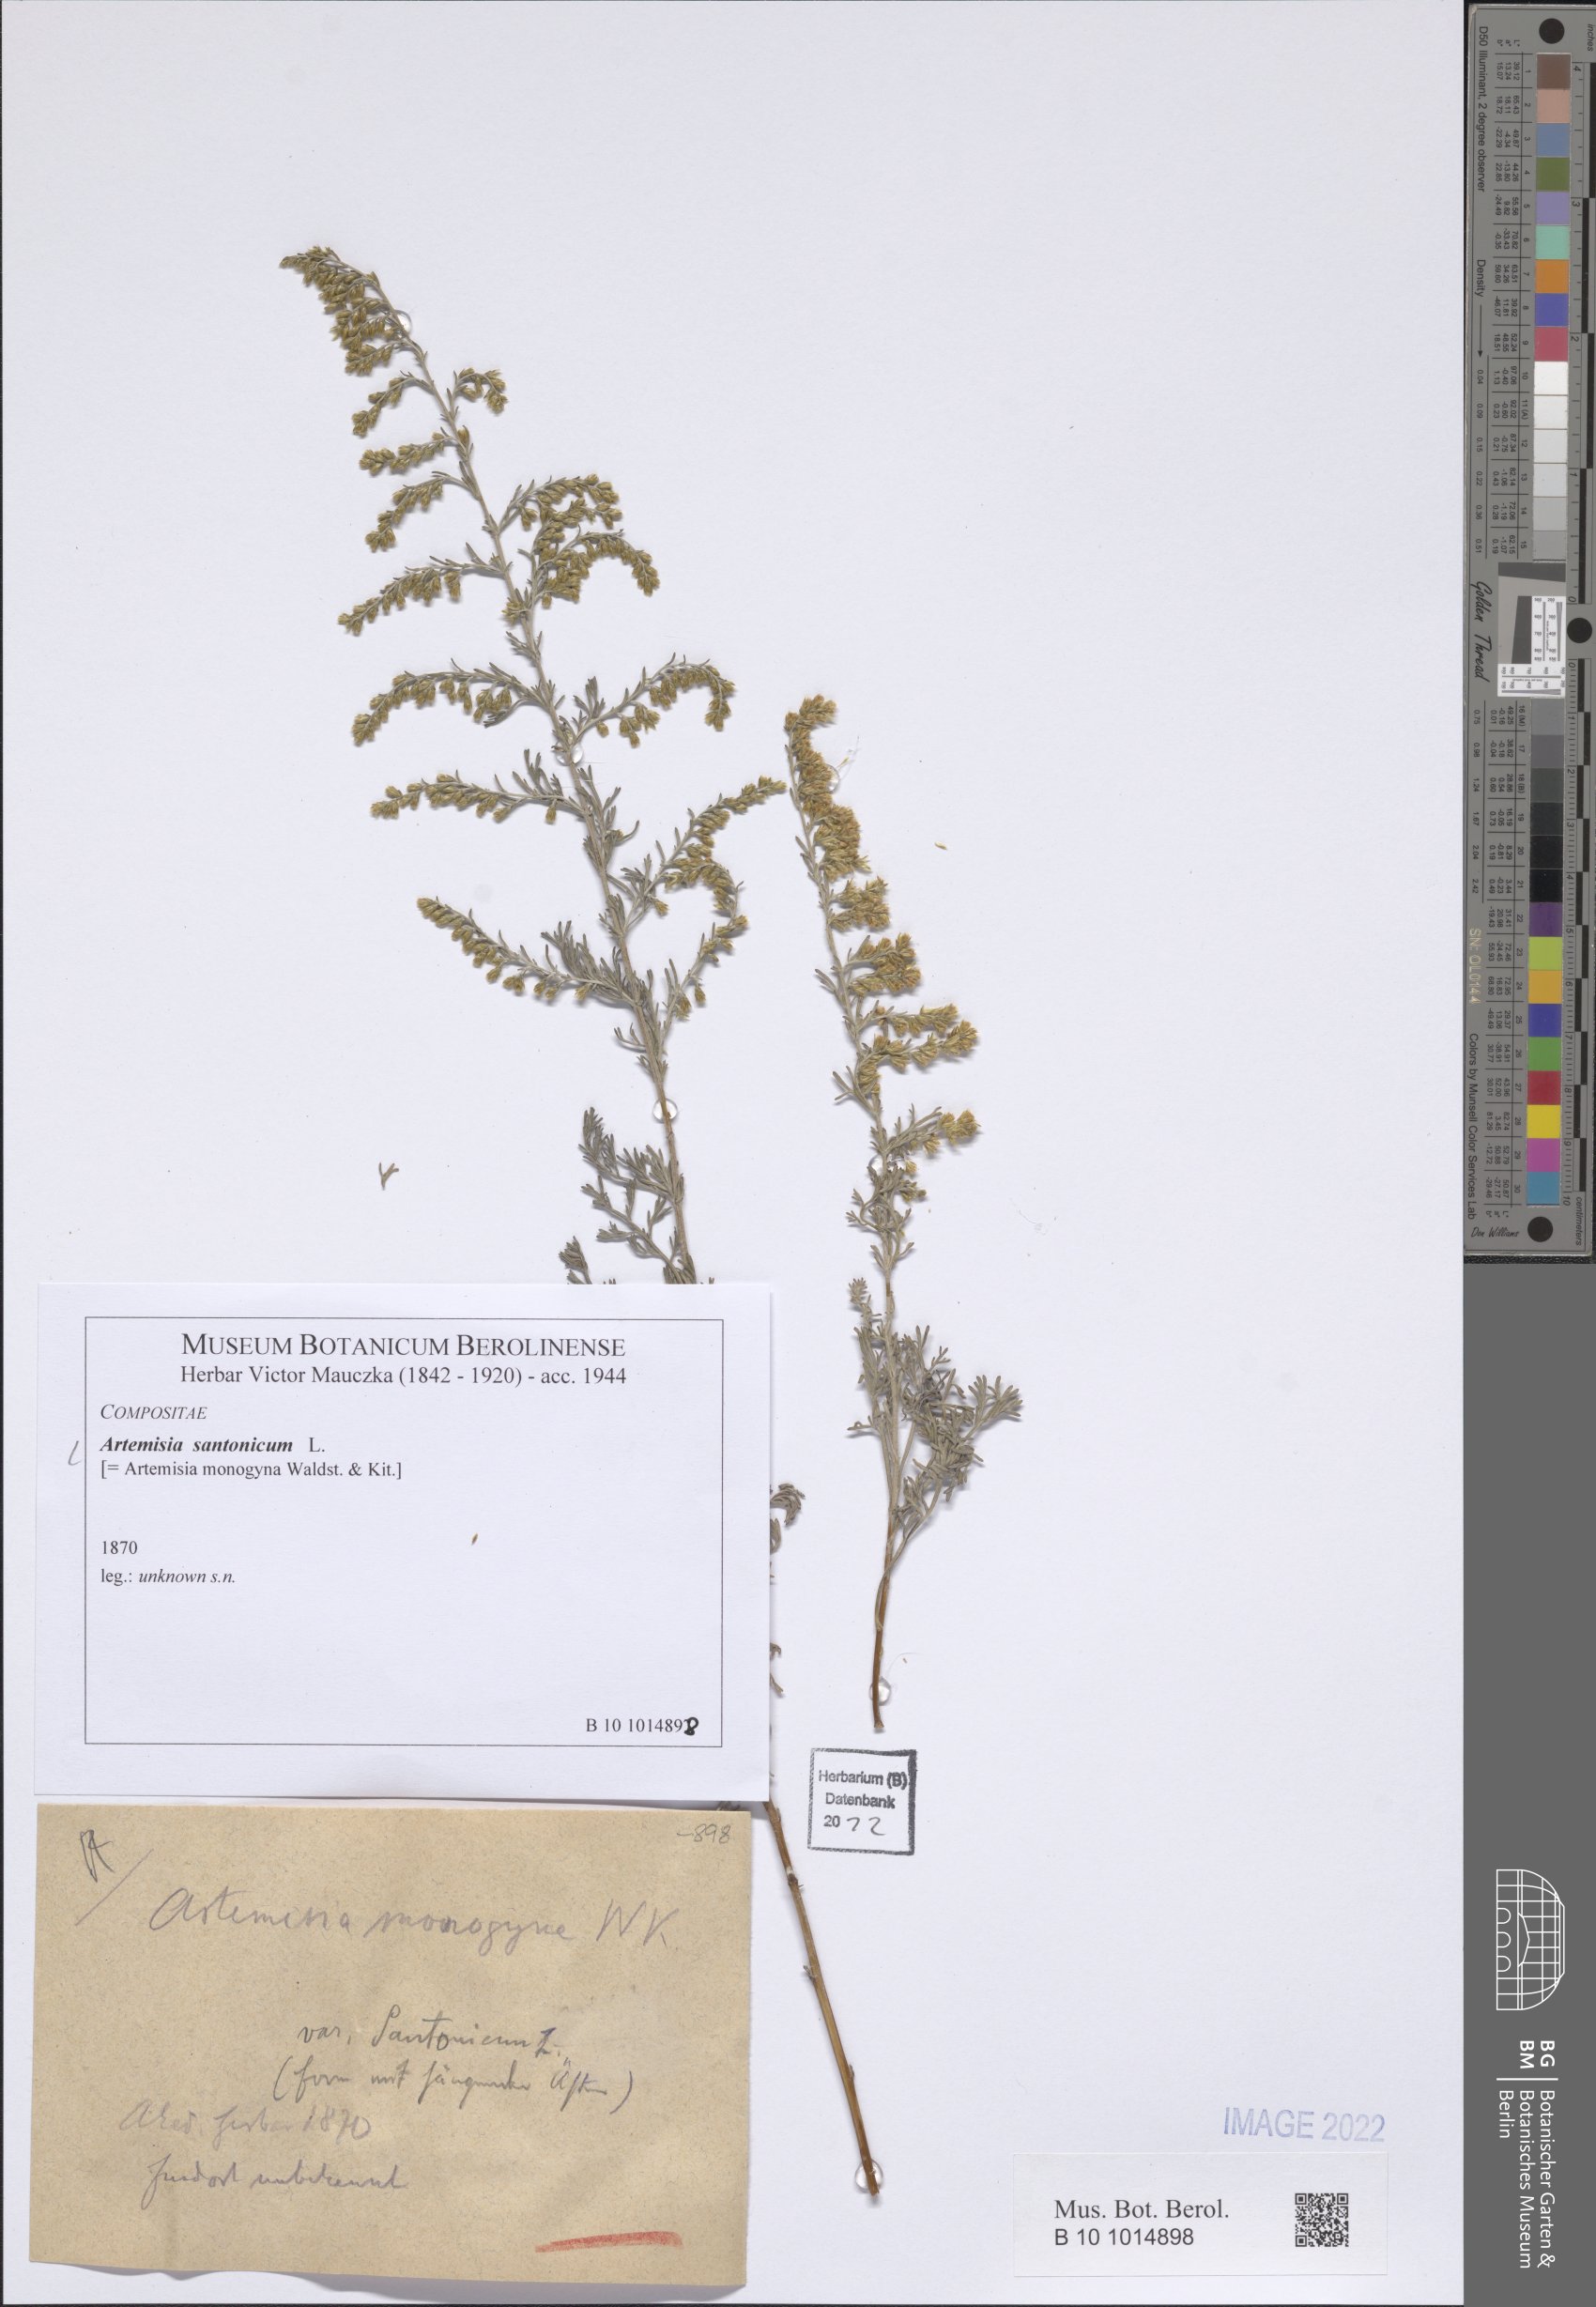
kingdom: Plantae
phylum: Tracheophyta
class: Magnoliopsida
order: Asterales
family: Asteraceae
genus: Artemisia
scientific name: Artemisia santonicum
